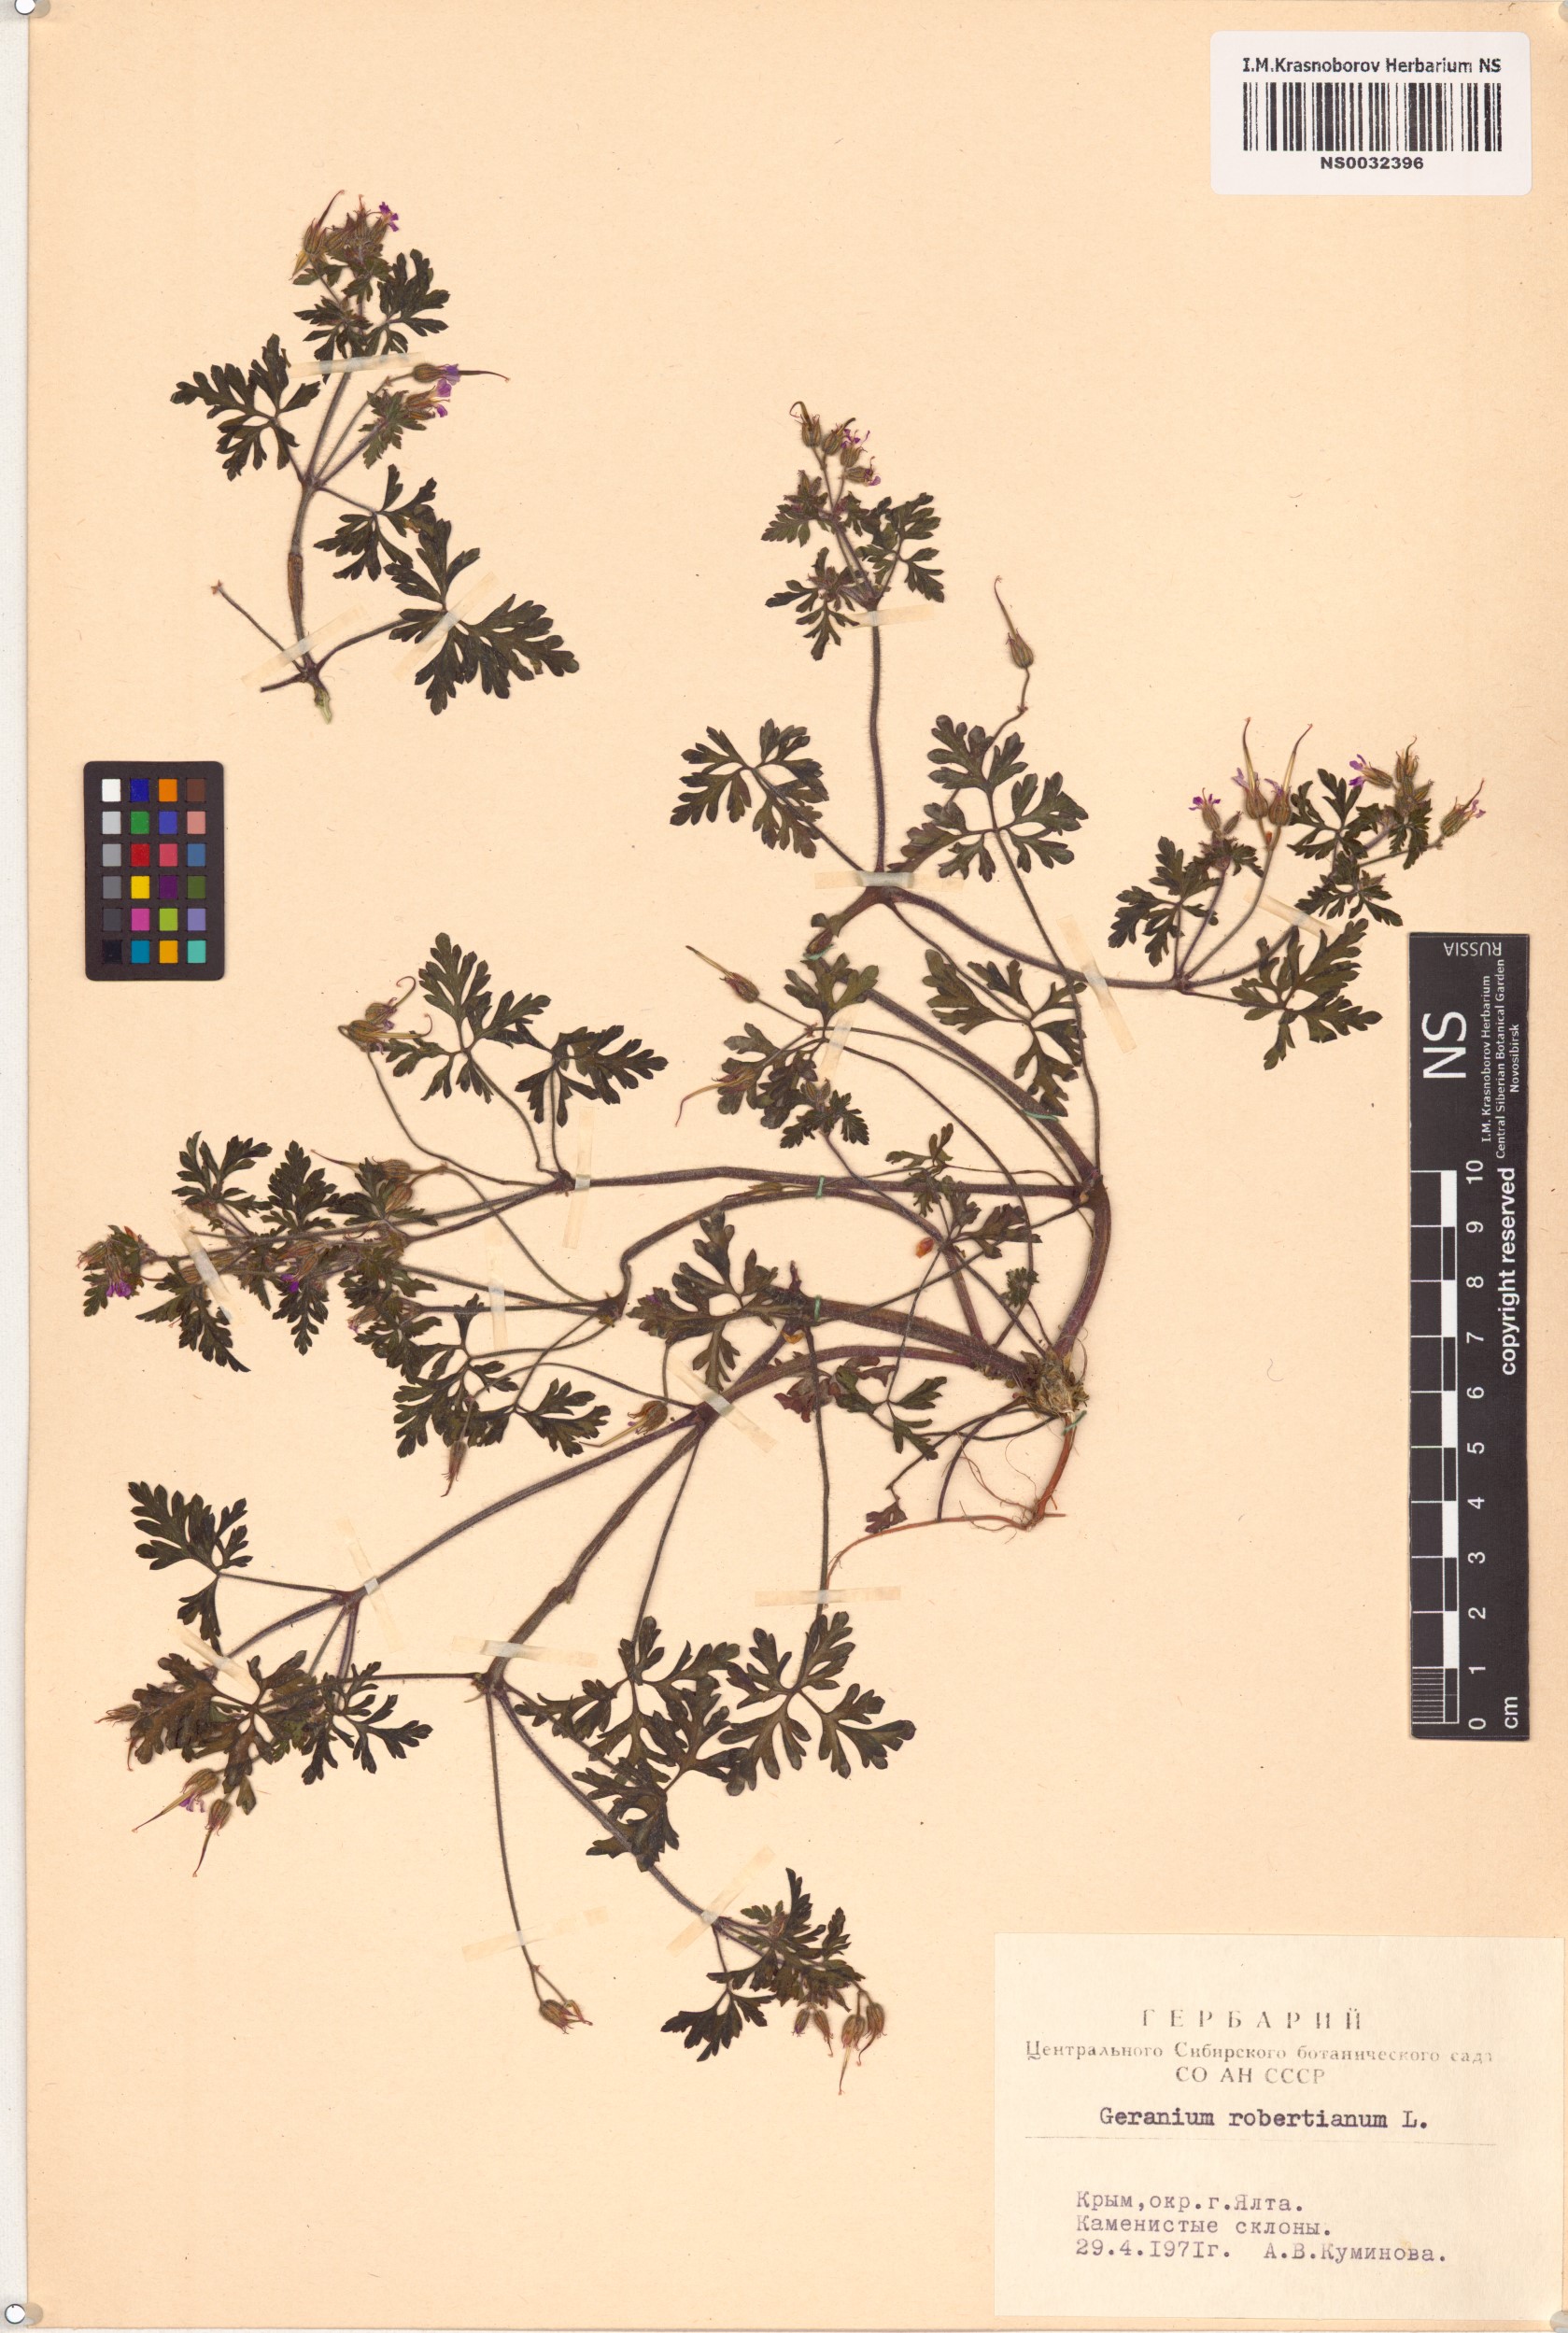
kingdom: Plantae
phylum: Tracheophyta
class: Magnoliopsida
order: Geraniales
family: Geraniaceae
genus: Geranium
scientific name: Geranium robertianum
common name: Herb-robert
